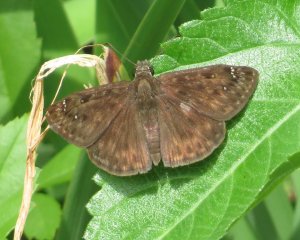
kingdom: Animalia
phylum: Arthropoda
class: Insecta
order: Lepidoptera
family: Hesperiidae
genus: Gesta
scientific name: Gesta
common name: Horace's Duskywing
